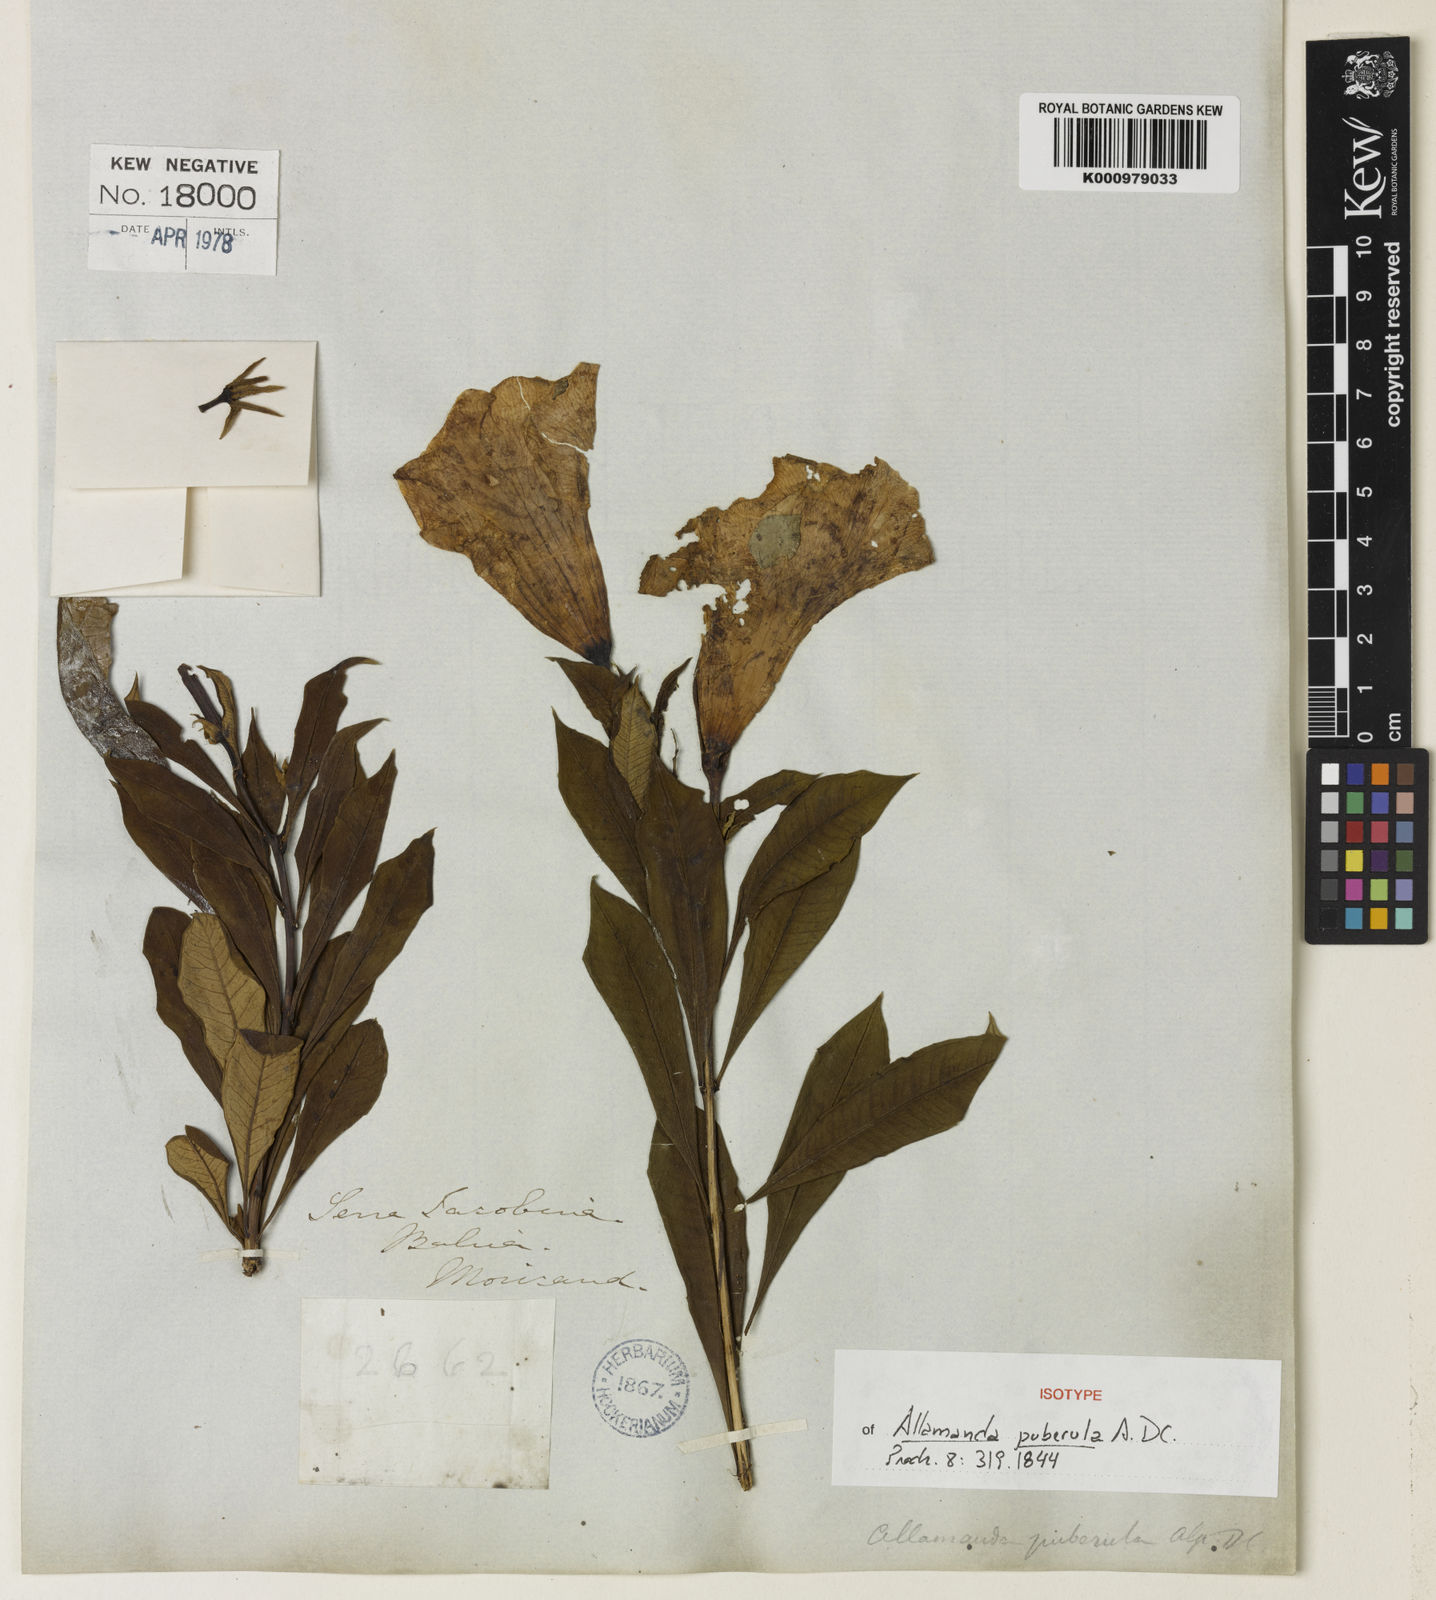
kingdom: Plantae
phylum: Tracheophyta
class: Magnoliopsida
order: Gentianales
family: Apocynaceae
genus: Allamanda
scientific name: Allamanda puberula
